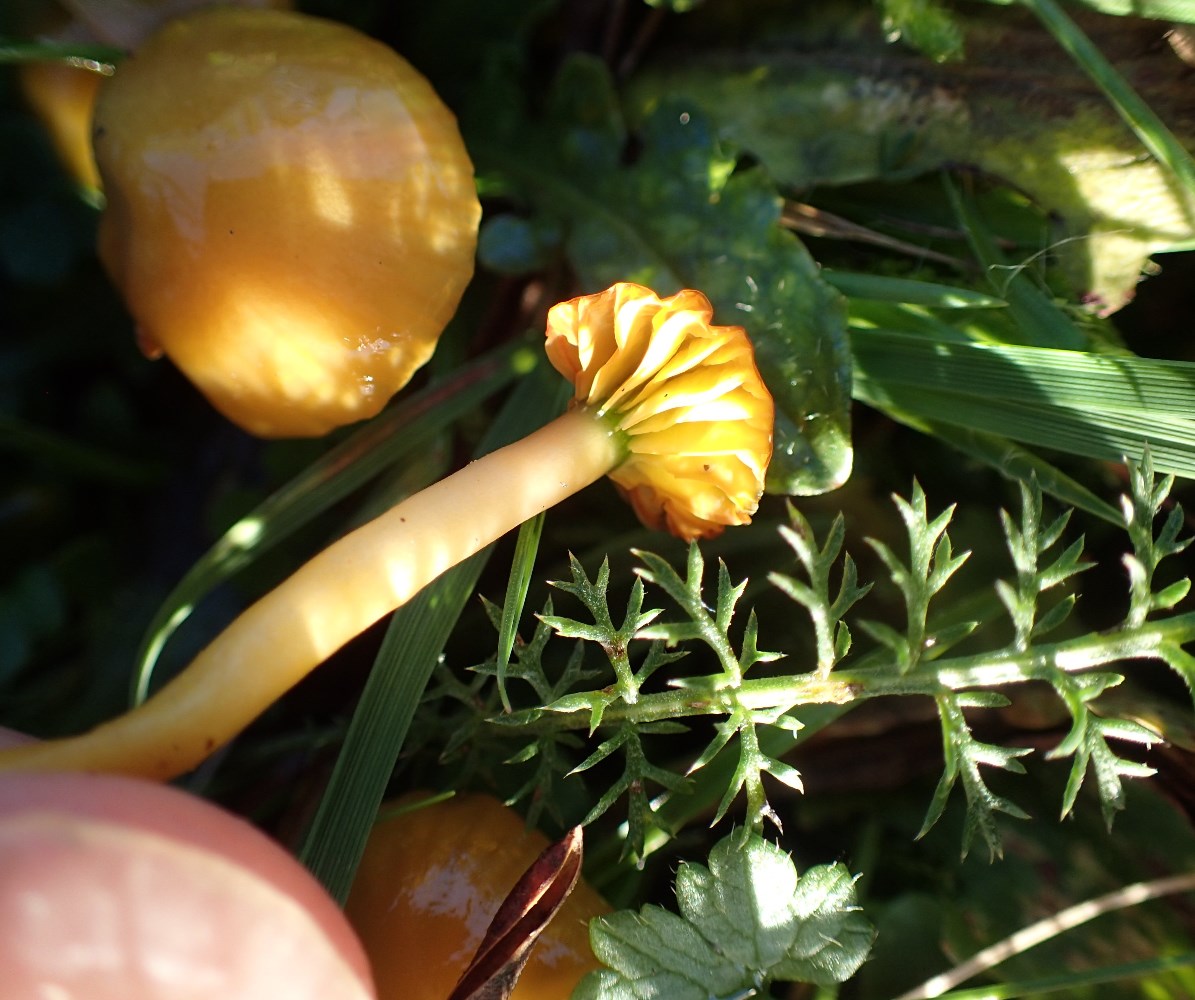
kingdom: Fungi
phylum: Basidiomycota
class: Agaricomycetes
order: Agaricales
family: Hygrophoraceae
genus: Gliophorus
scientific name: Gliophorus psittacinus
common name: papegøje-vokshat
